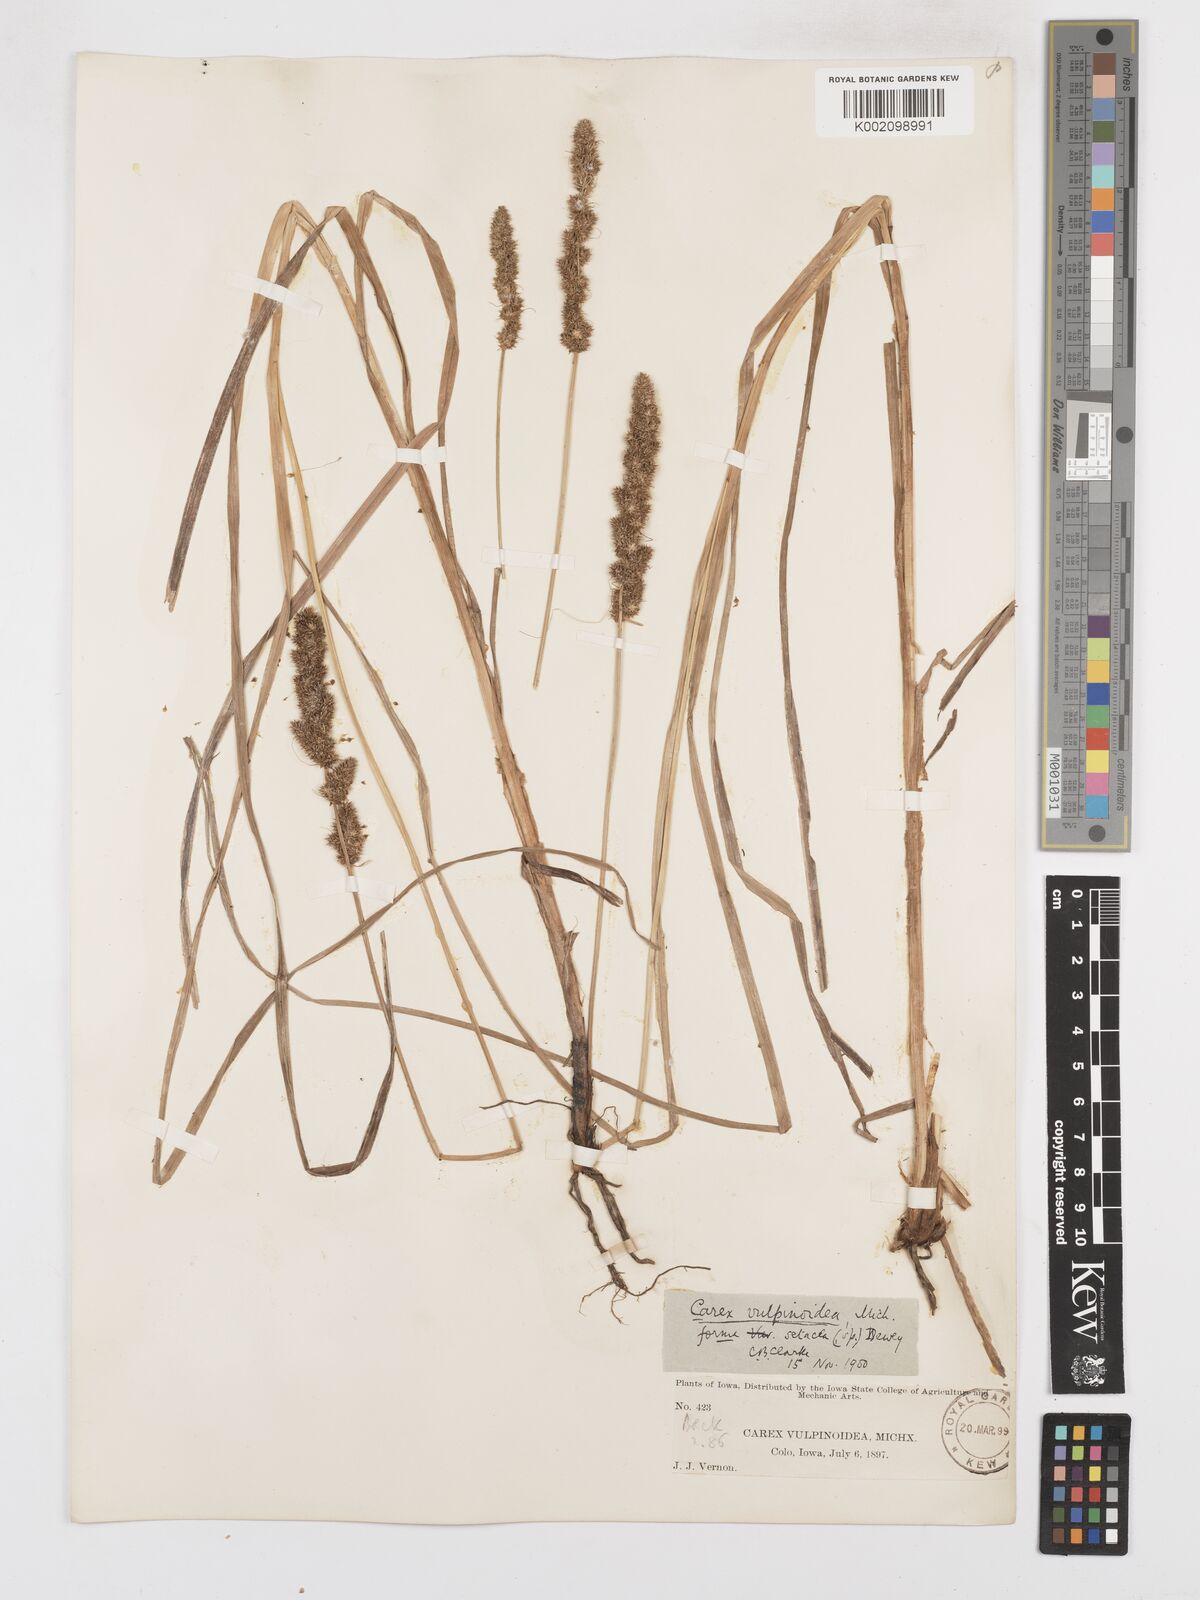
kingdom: Plantae
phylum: Tracheophyta
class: Liliopsida
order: Poales
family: Cyperaceae
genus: Carex
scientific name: Carex vulpinoidea
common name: American fox-sedge
